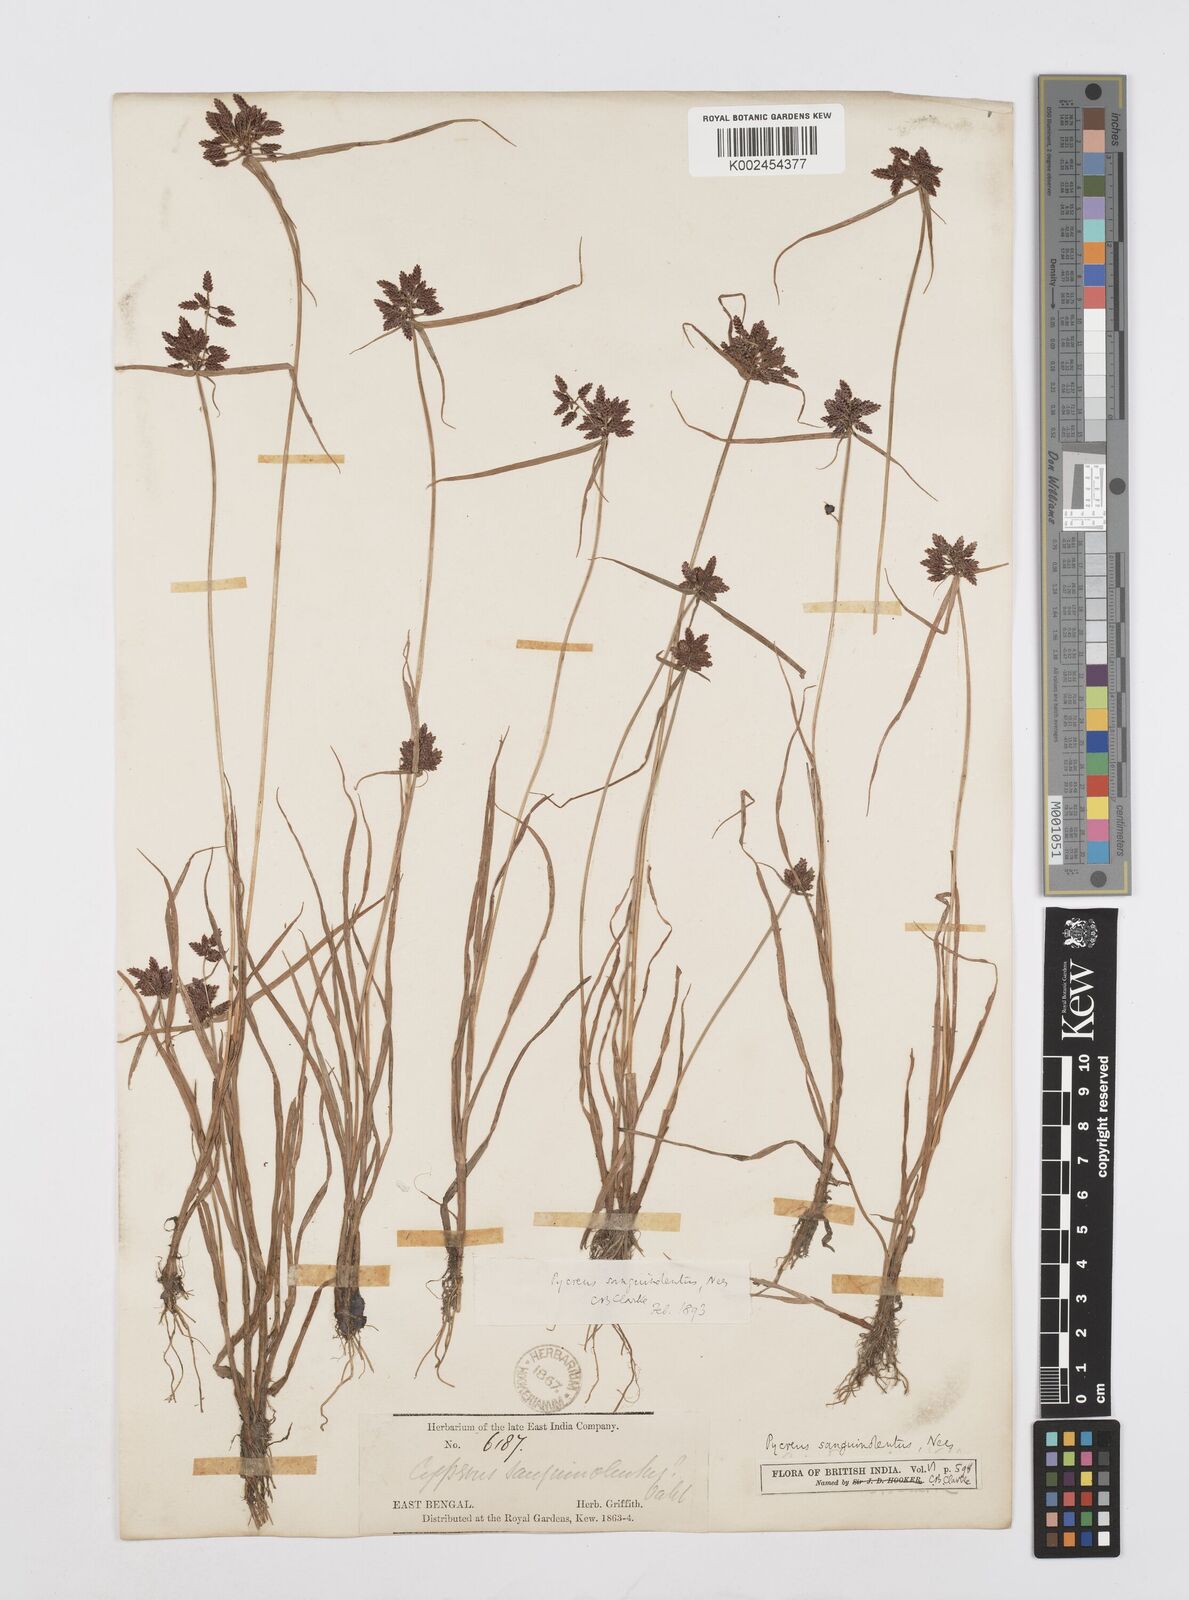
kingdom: Plantae
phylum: Tracheophyta
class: Liliopsida
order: Poales
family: Cyperaceae
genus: Cyperus
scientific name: Cyperus sanguinolentus
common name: Purpleglume flatsedge
